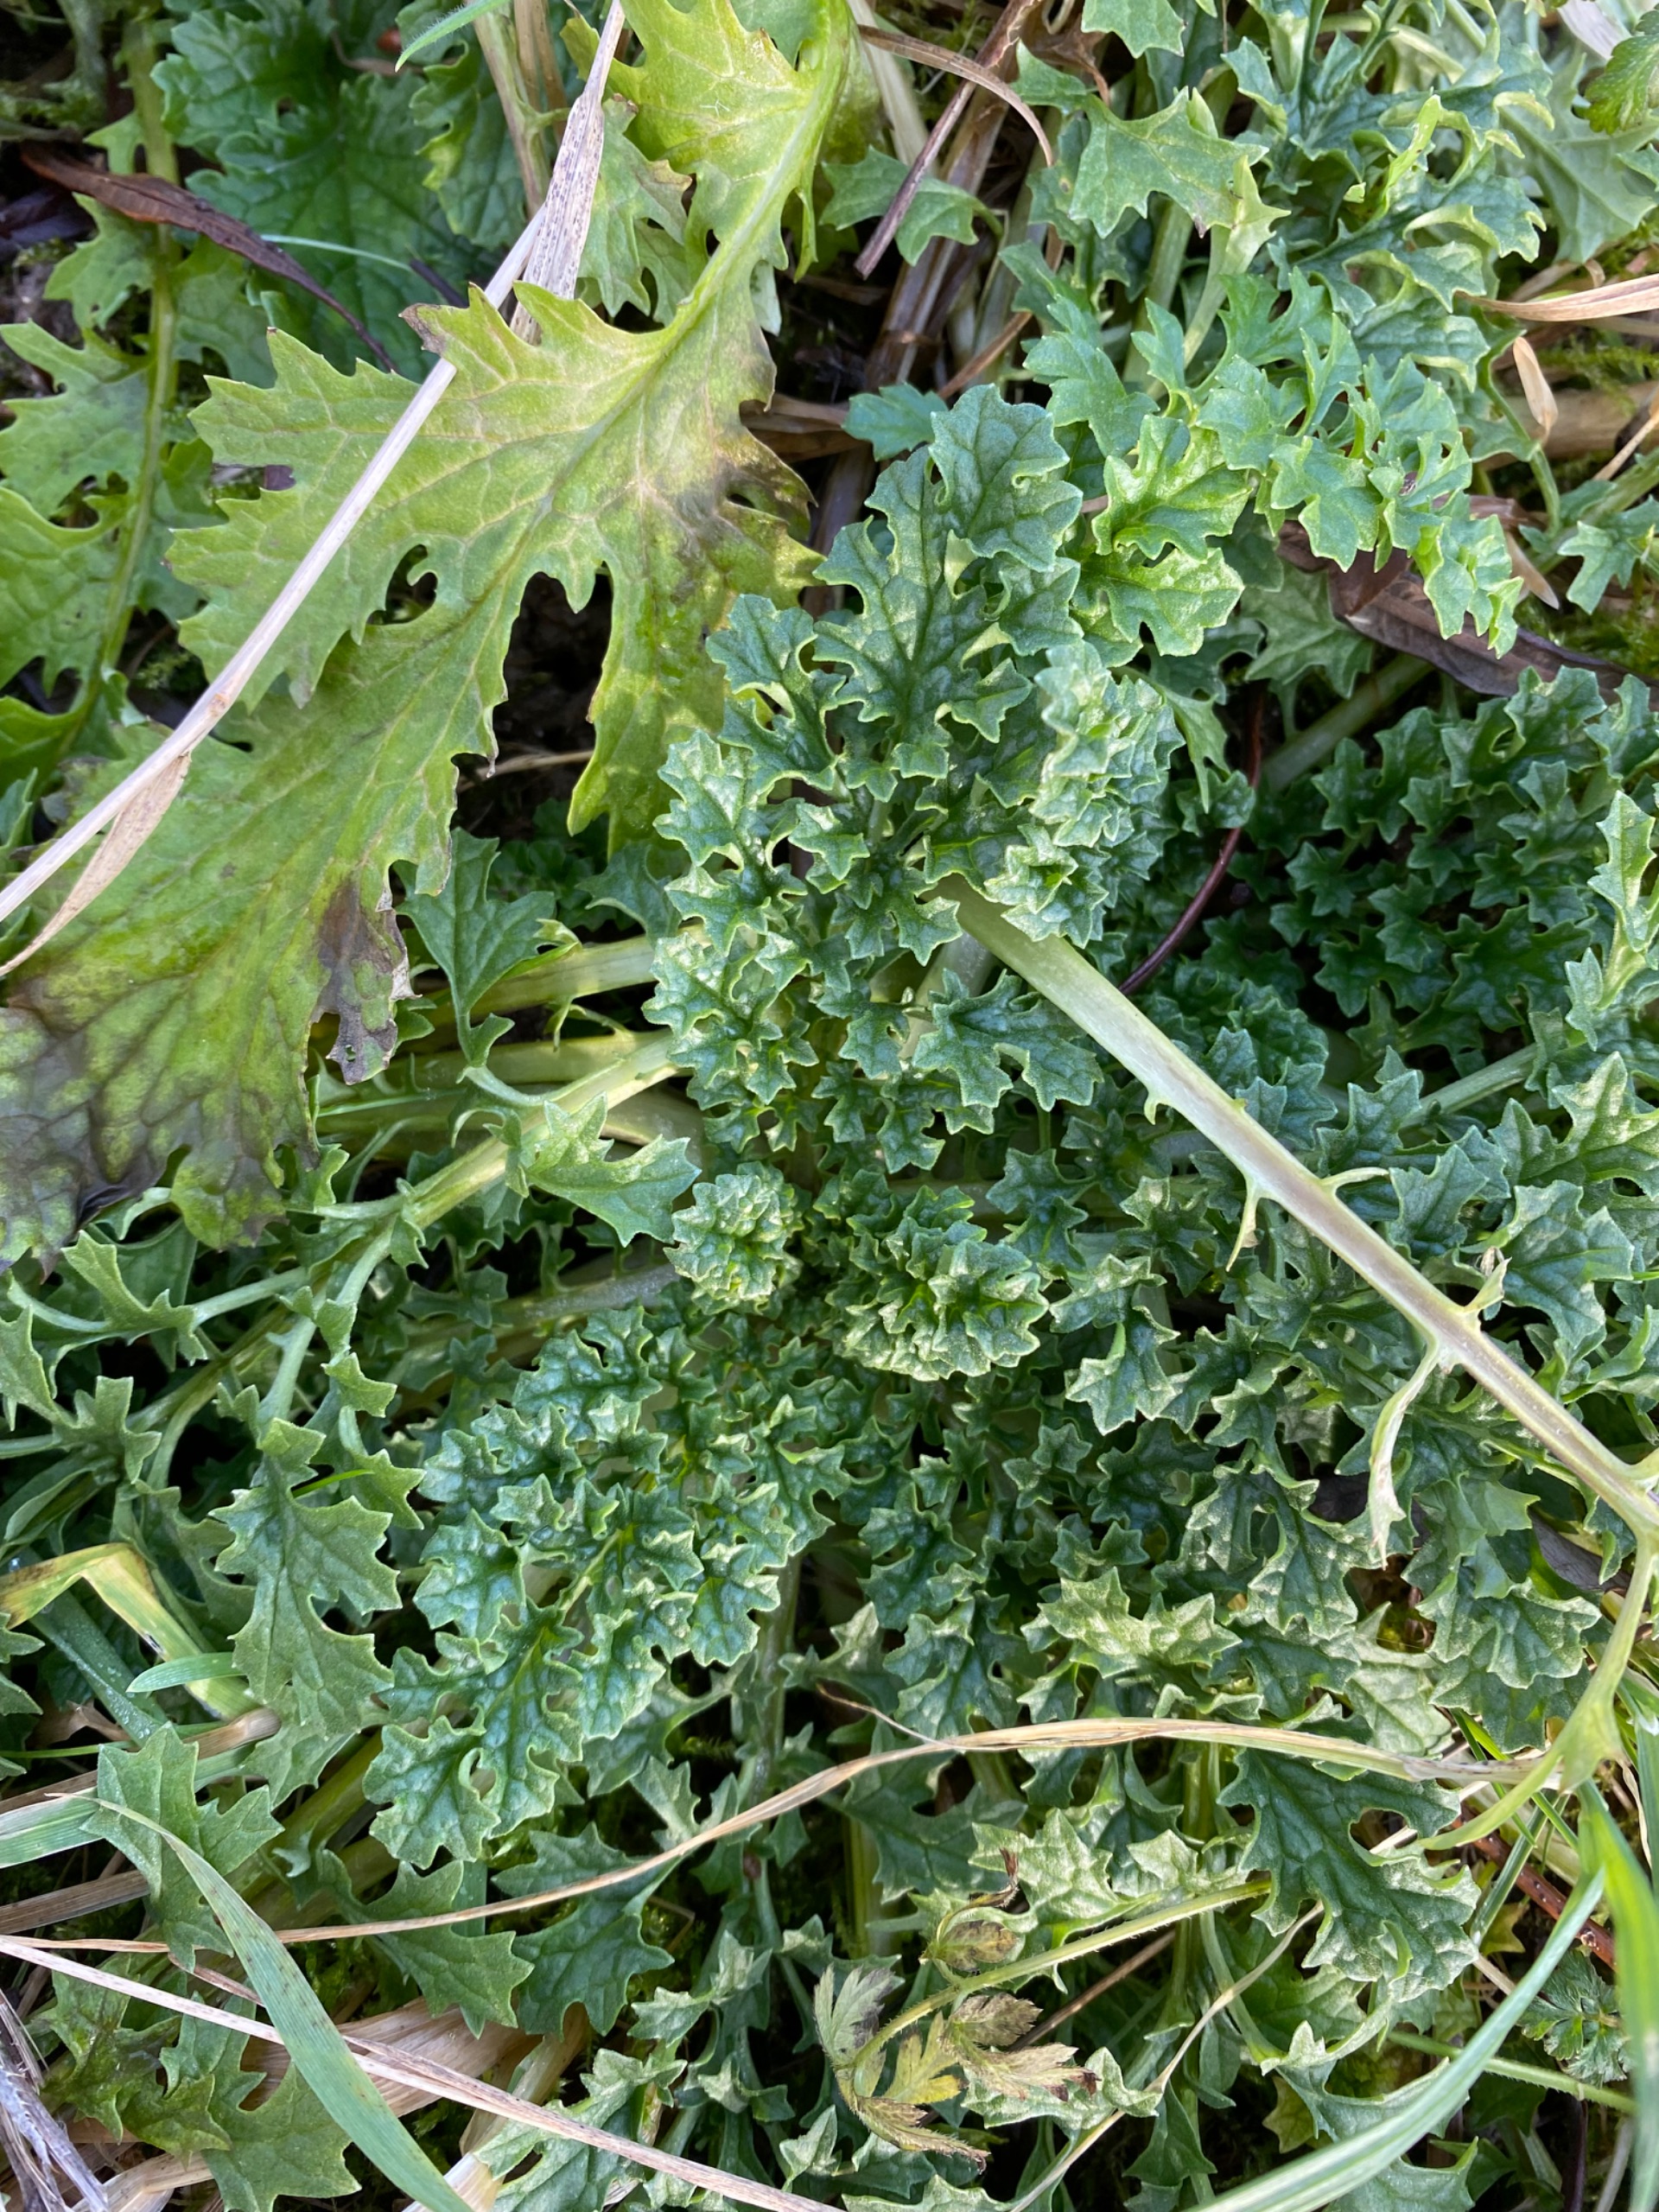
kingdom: Plantae
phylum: Tracheophyta
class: Magnoliopsida
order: Asterales
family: Asteraceae
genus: Jacobaea
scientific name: Jacobaea vulgaris
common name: Eng-brandbæger
